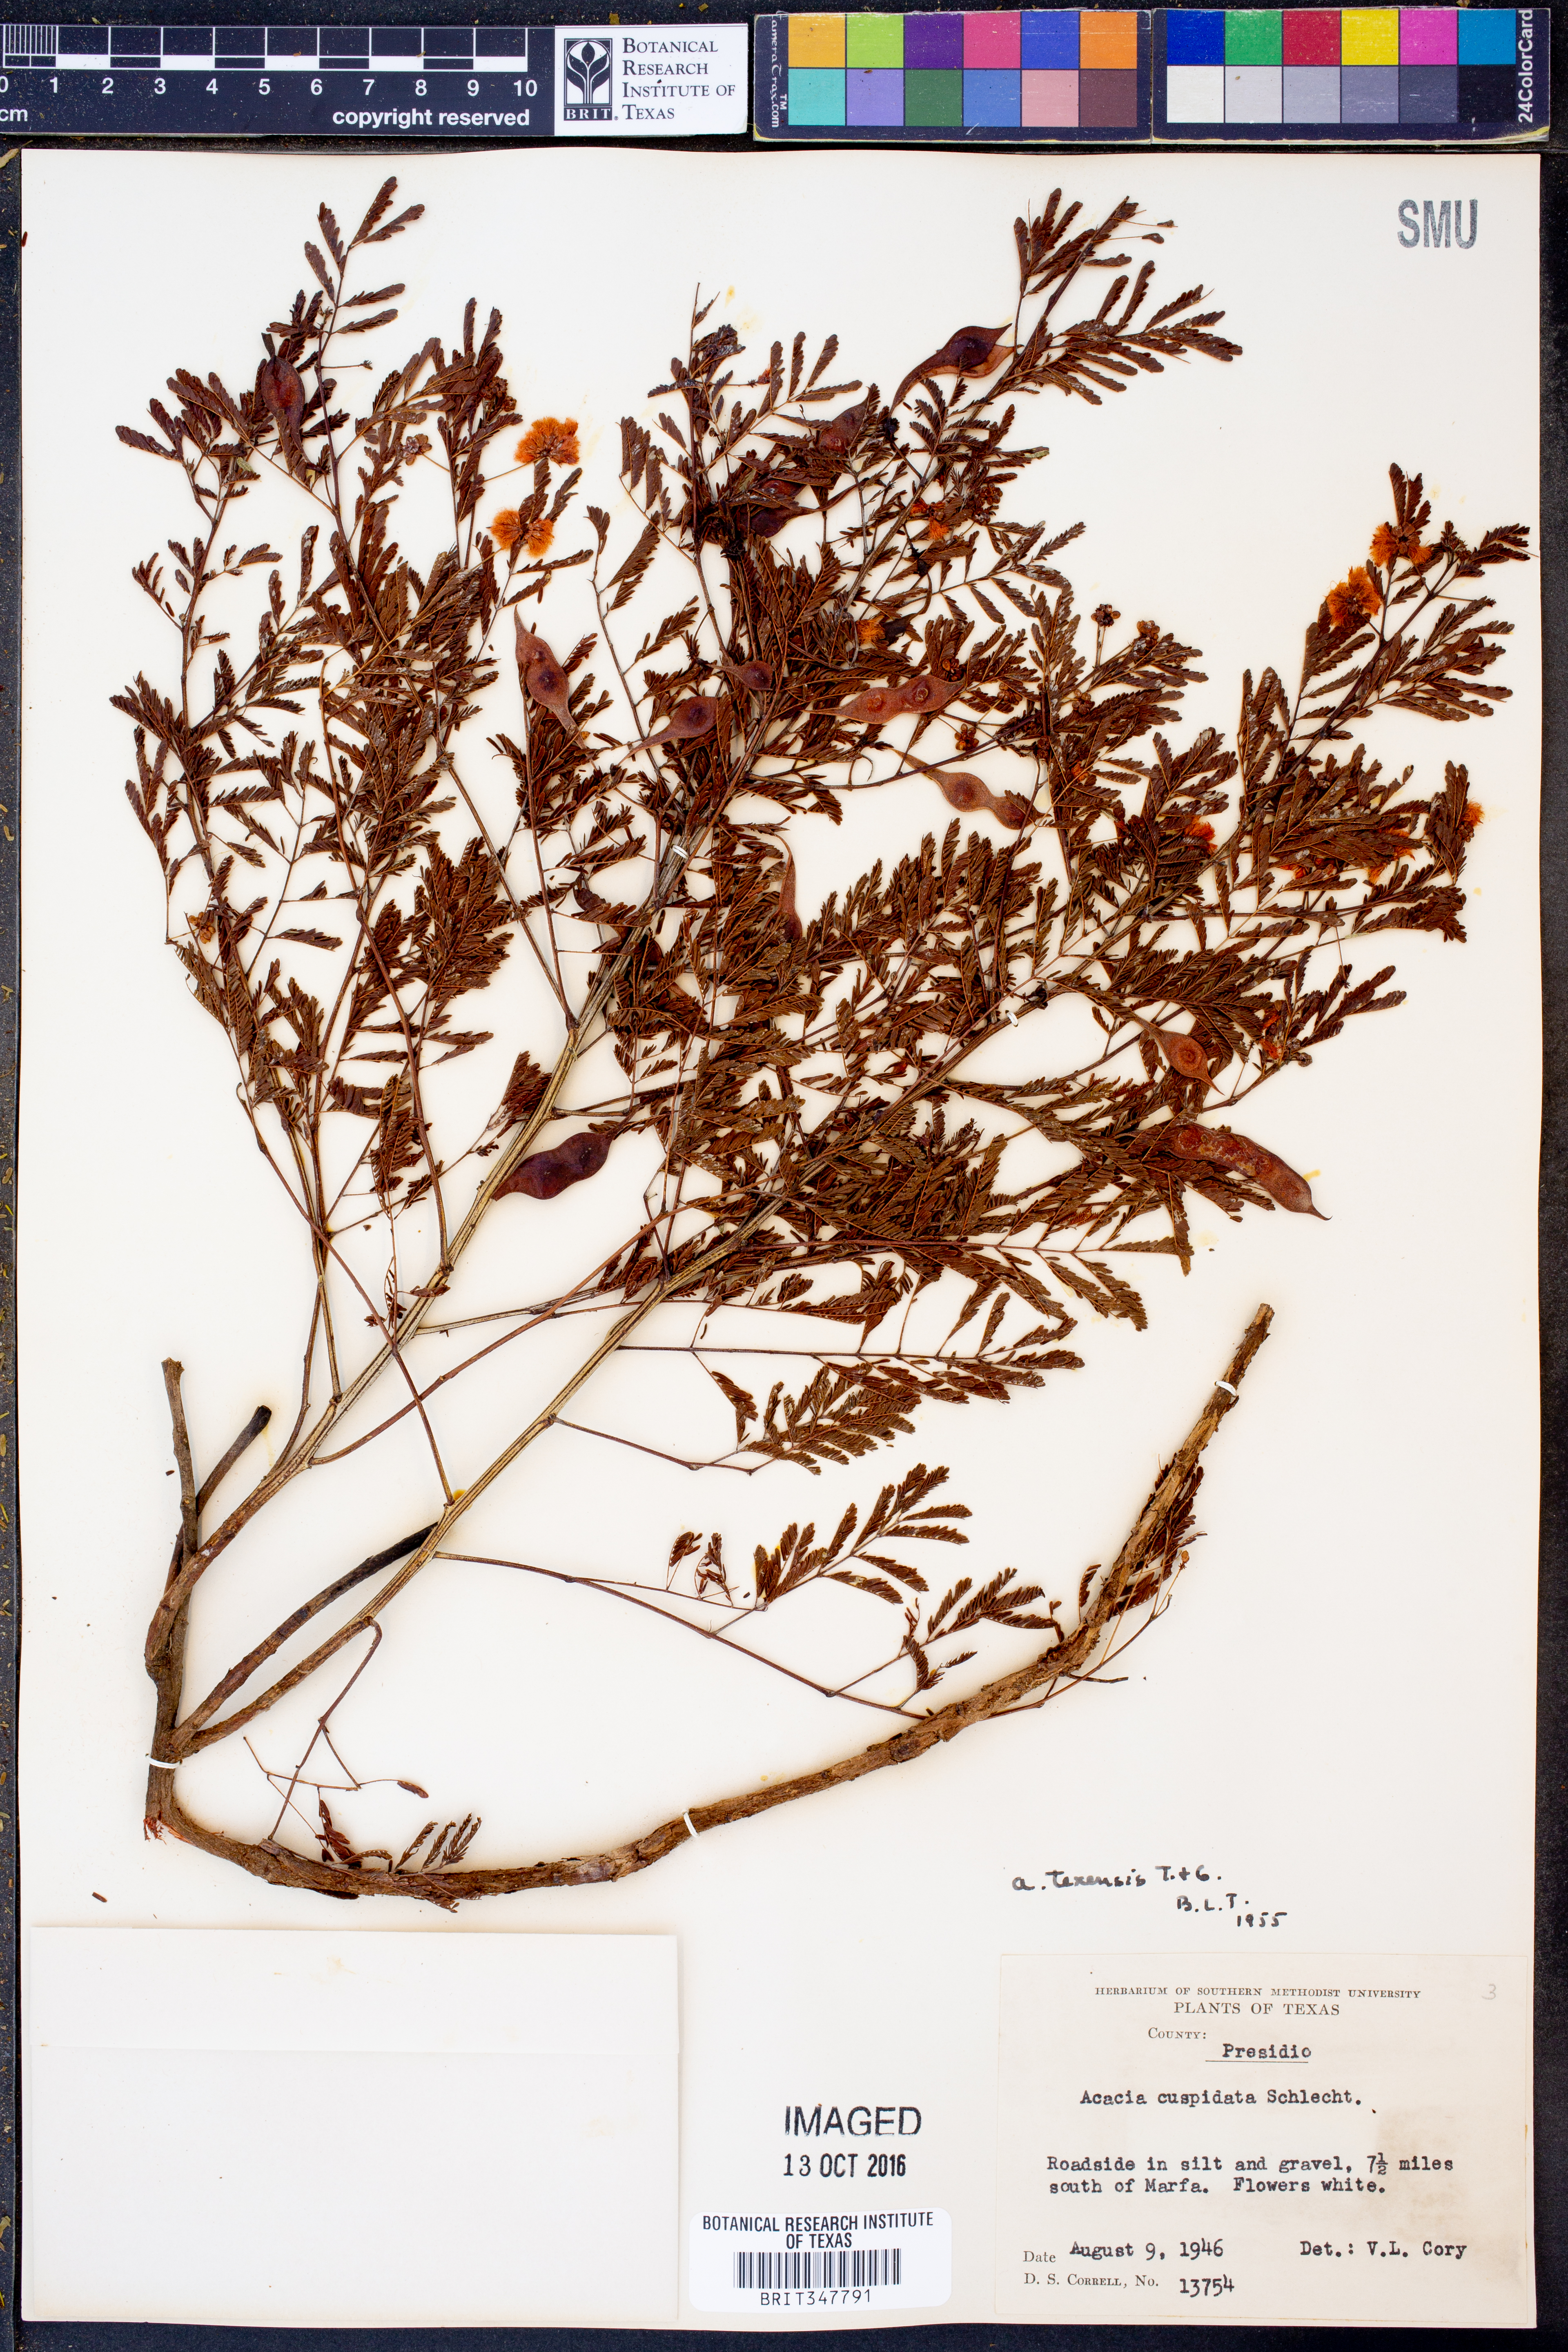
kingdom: Plantae
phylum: Tracheophyta
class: Magnoliopsida
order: Fabales
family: Fabaceae
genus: Acaciella
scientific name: Acaciella angustissima
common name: Prairie acacia
